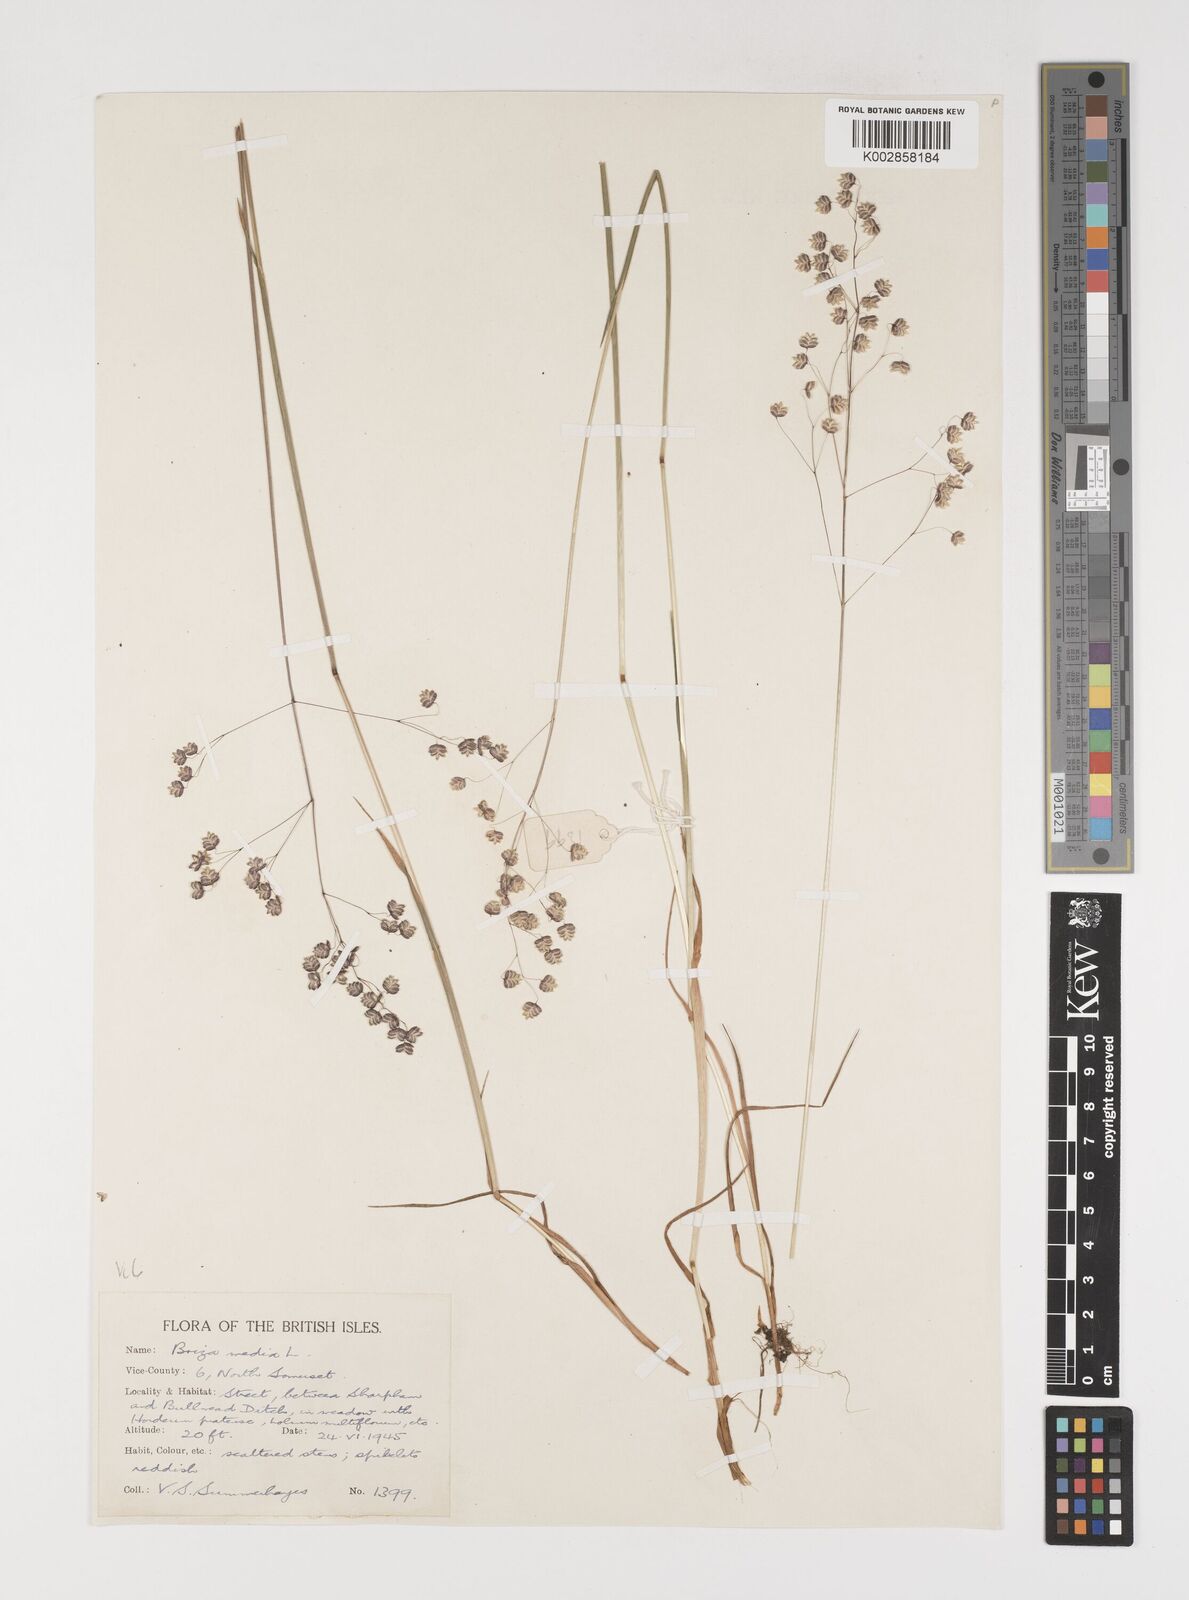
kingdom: Plantae
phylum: Tracheophyta
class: Liliopsida
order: Poales
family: Poaceae
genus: Briza
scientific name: Briza media
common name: Quaking grass
